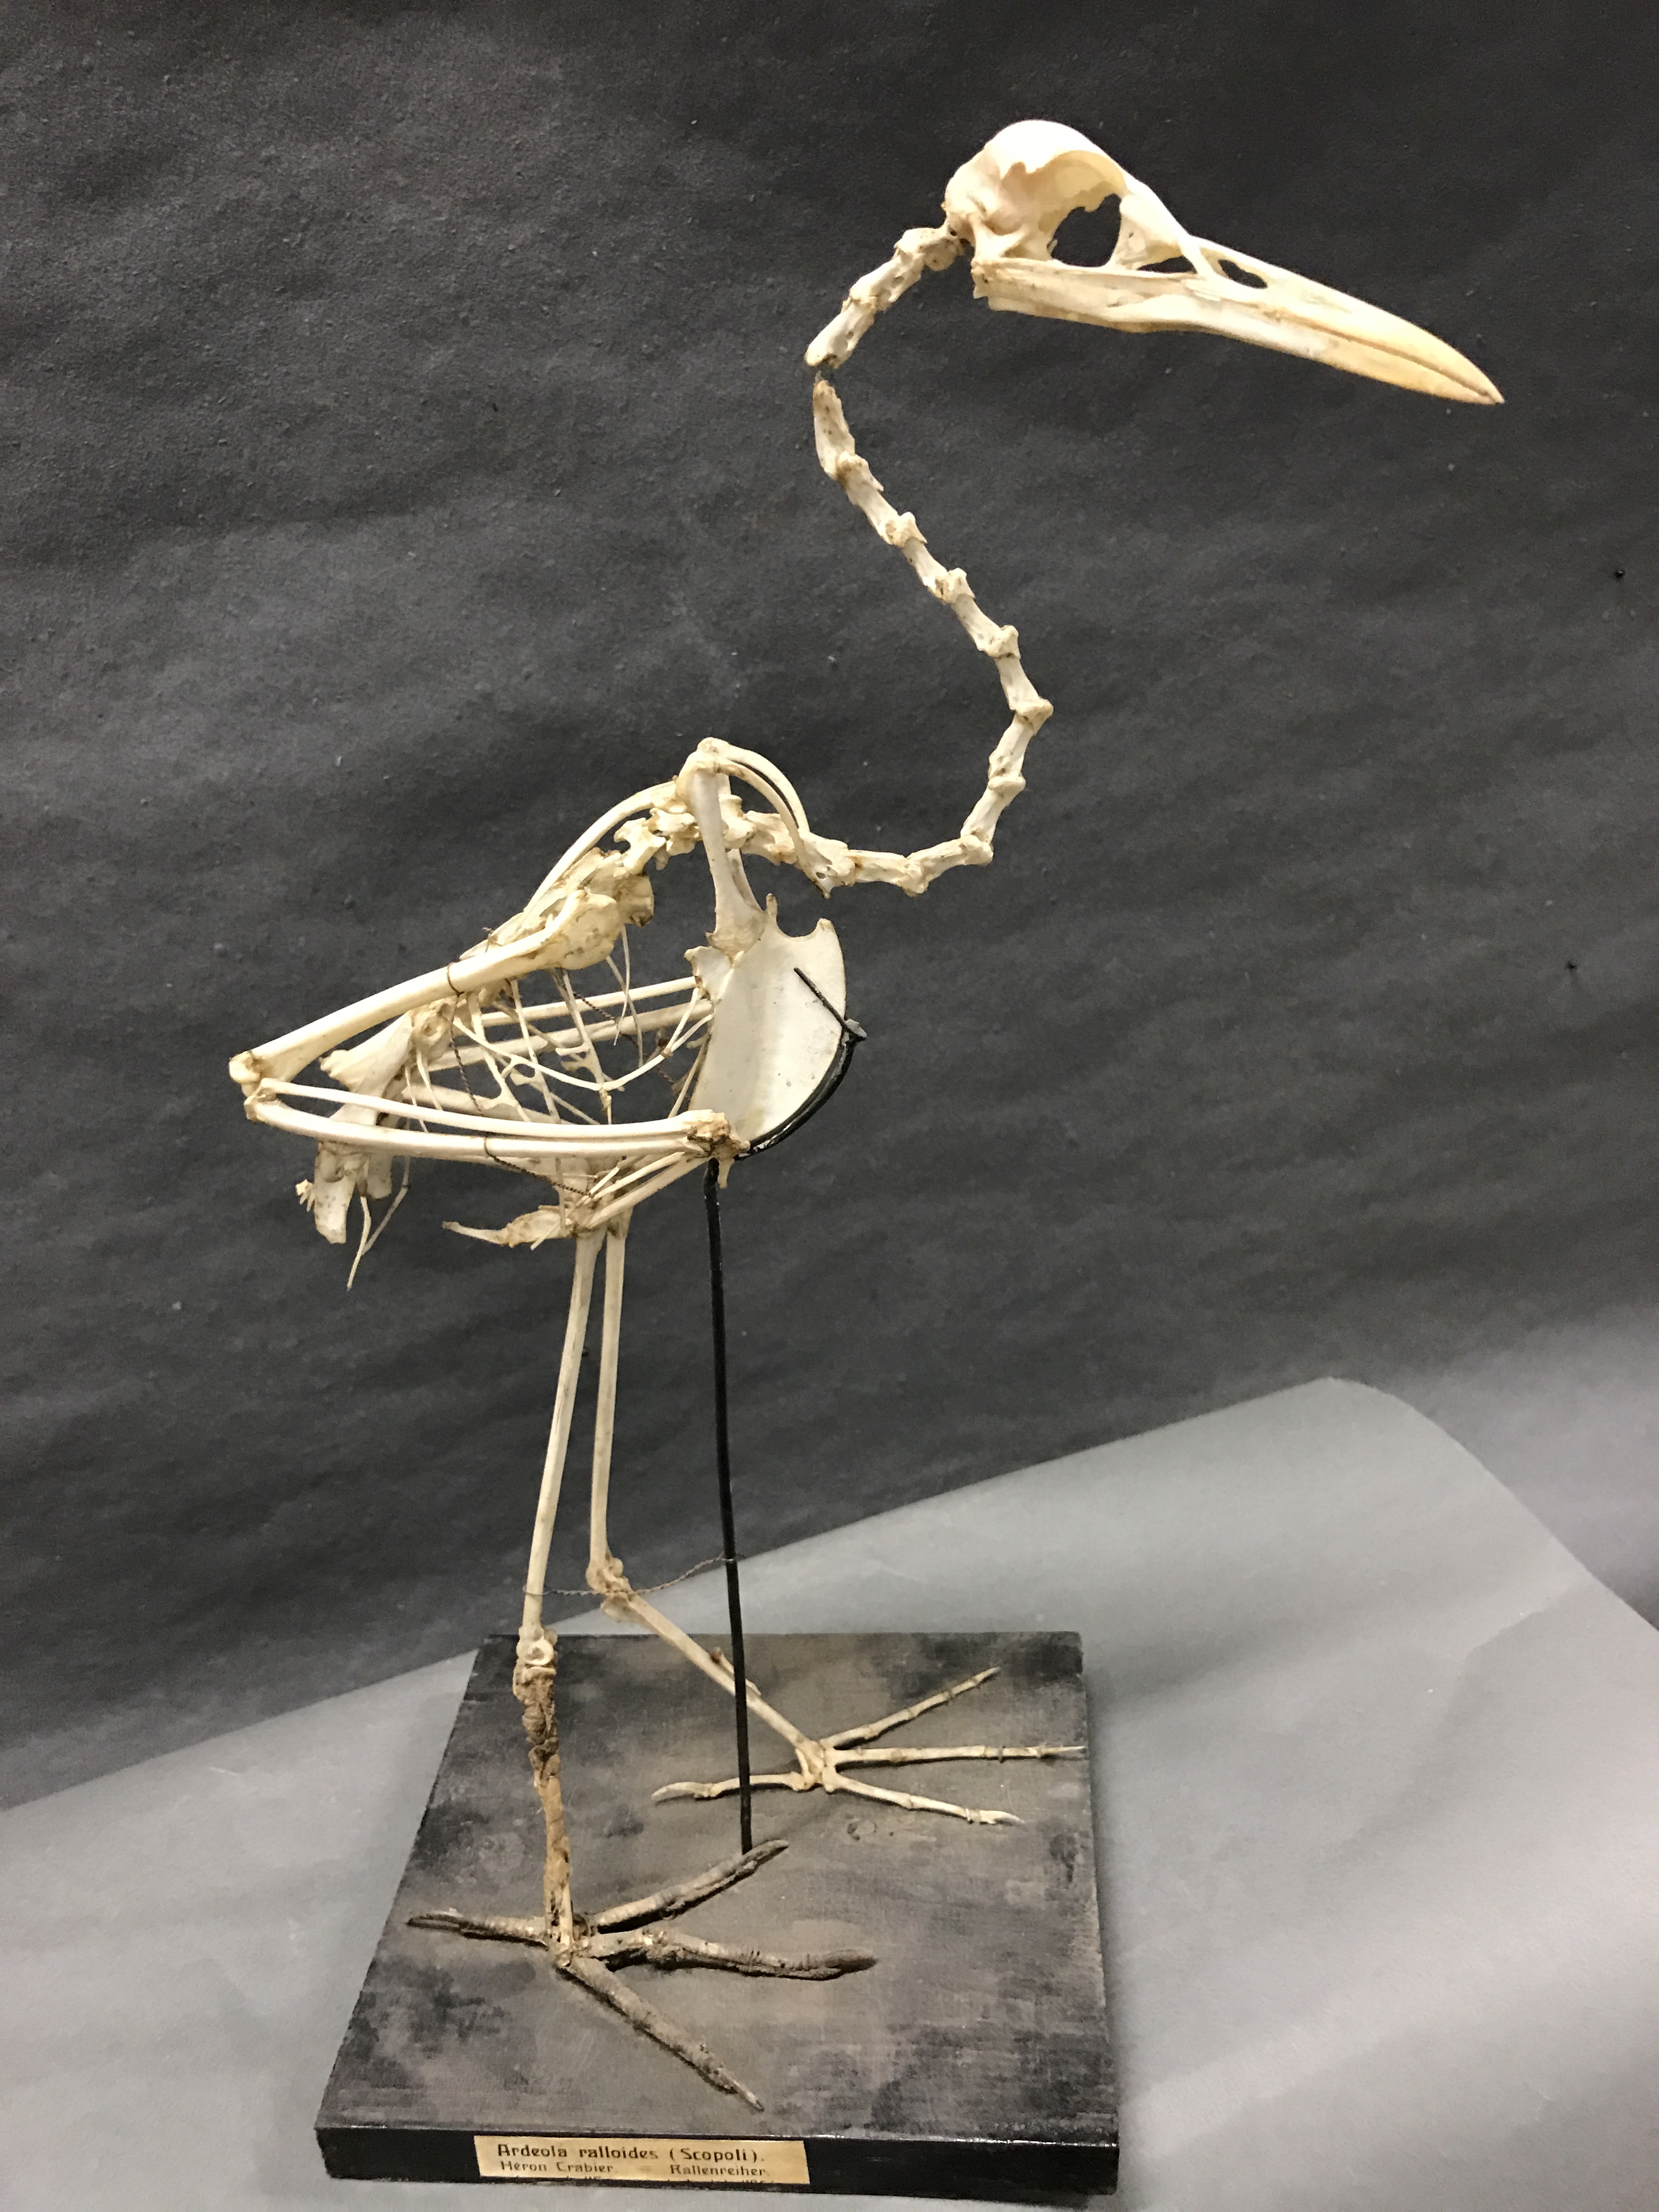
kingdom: Animalia
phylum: Chordata
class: Aves
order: Pelecaniformes
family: Ardeidae
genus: Ardeola
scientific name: Ardeola ralloides
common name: Squacco heron
